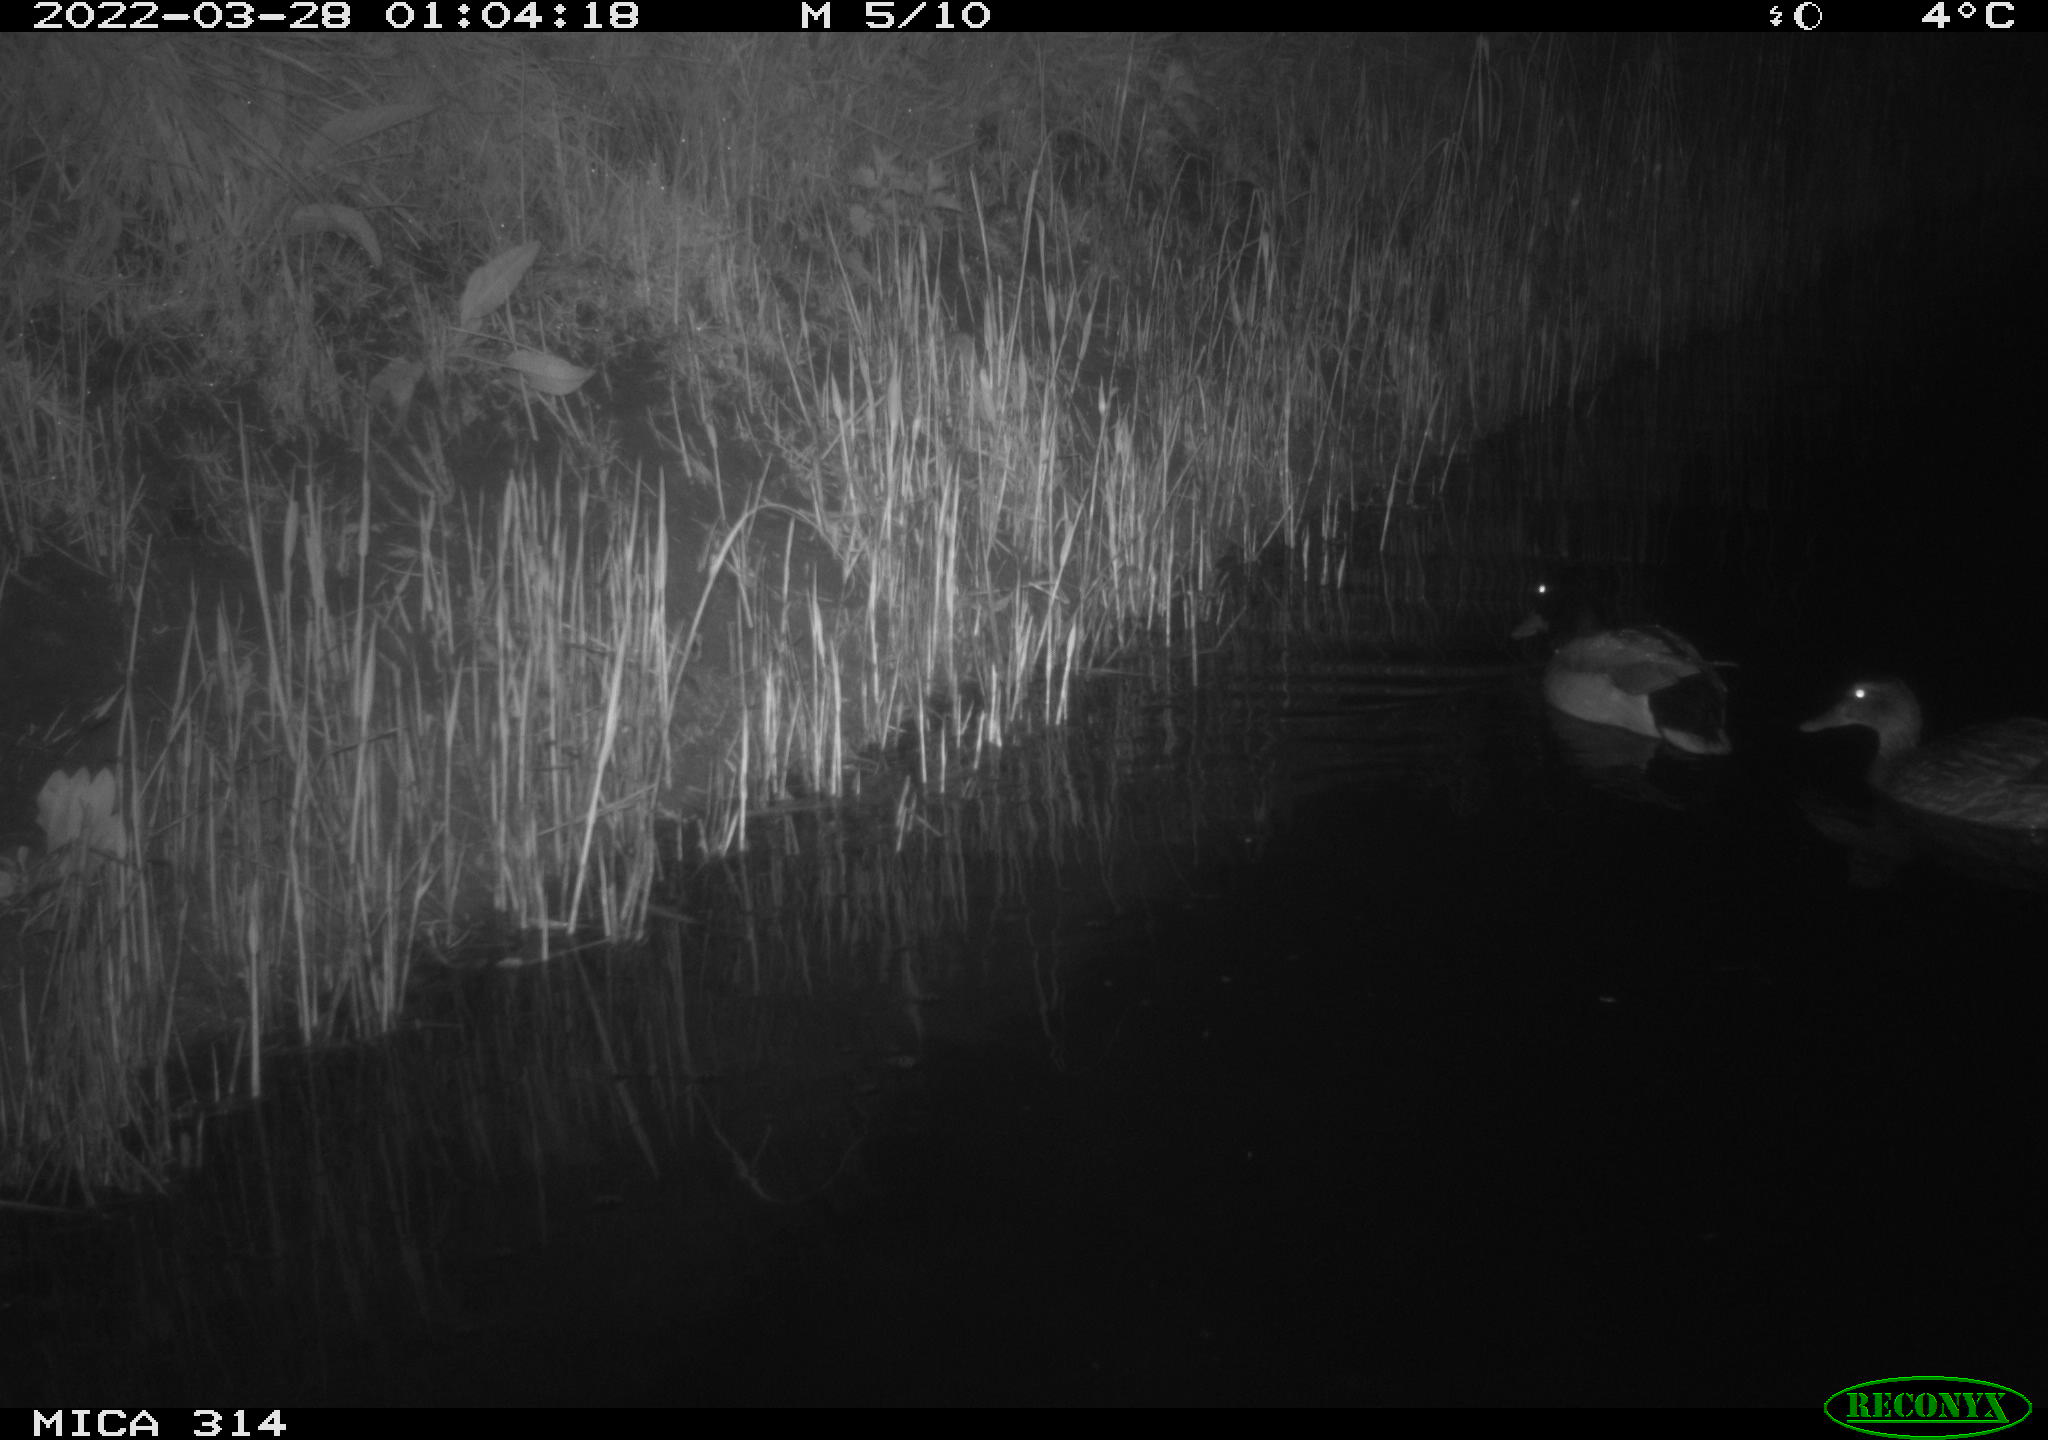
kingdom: Animalia
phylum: Chordata
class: Aves
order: Anseriformes
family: Anatidae
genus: Anas
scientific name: Anas platyrhynchos
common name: Mallard
